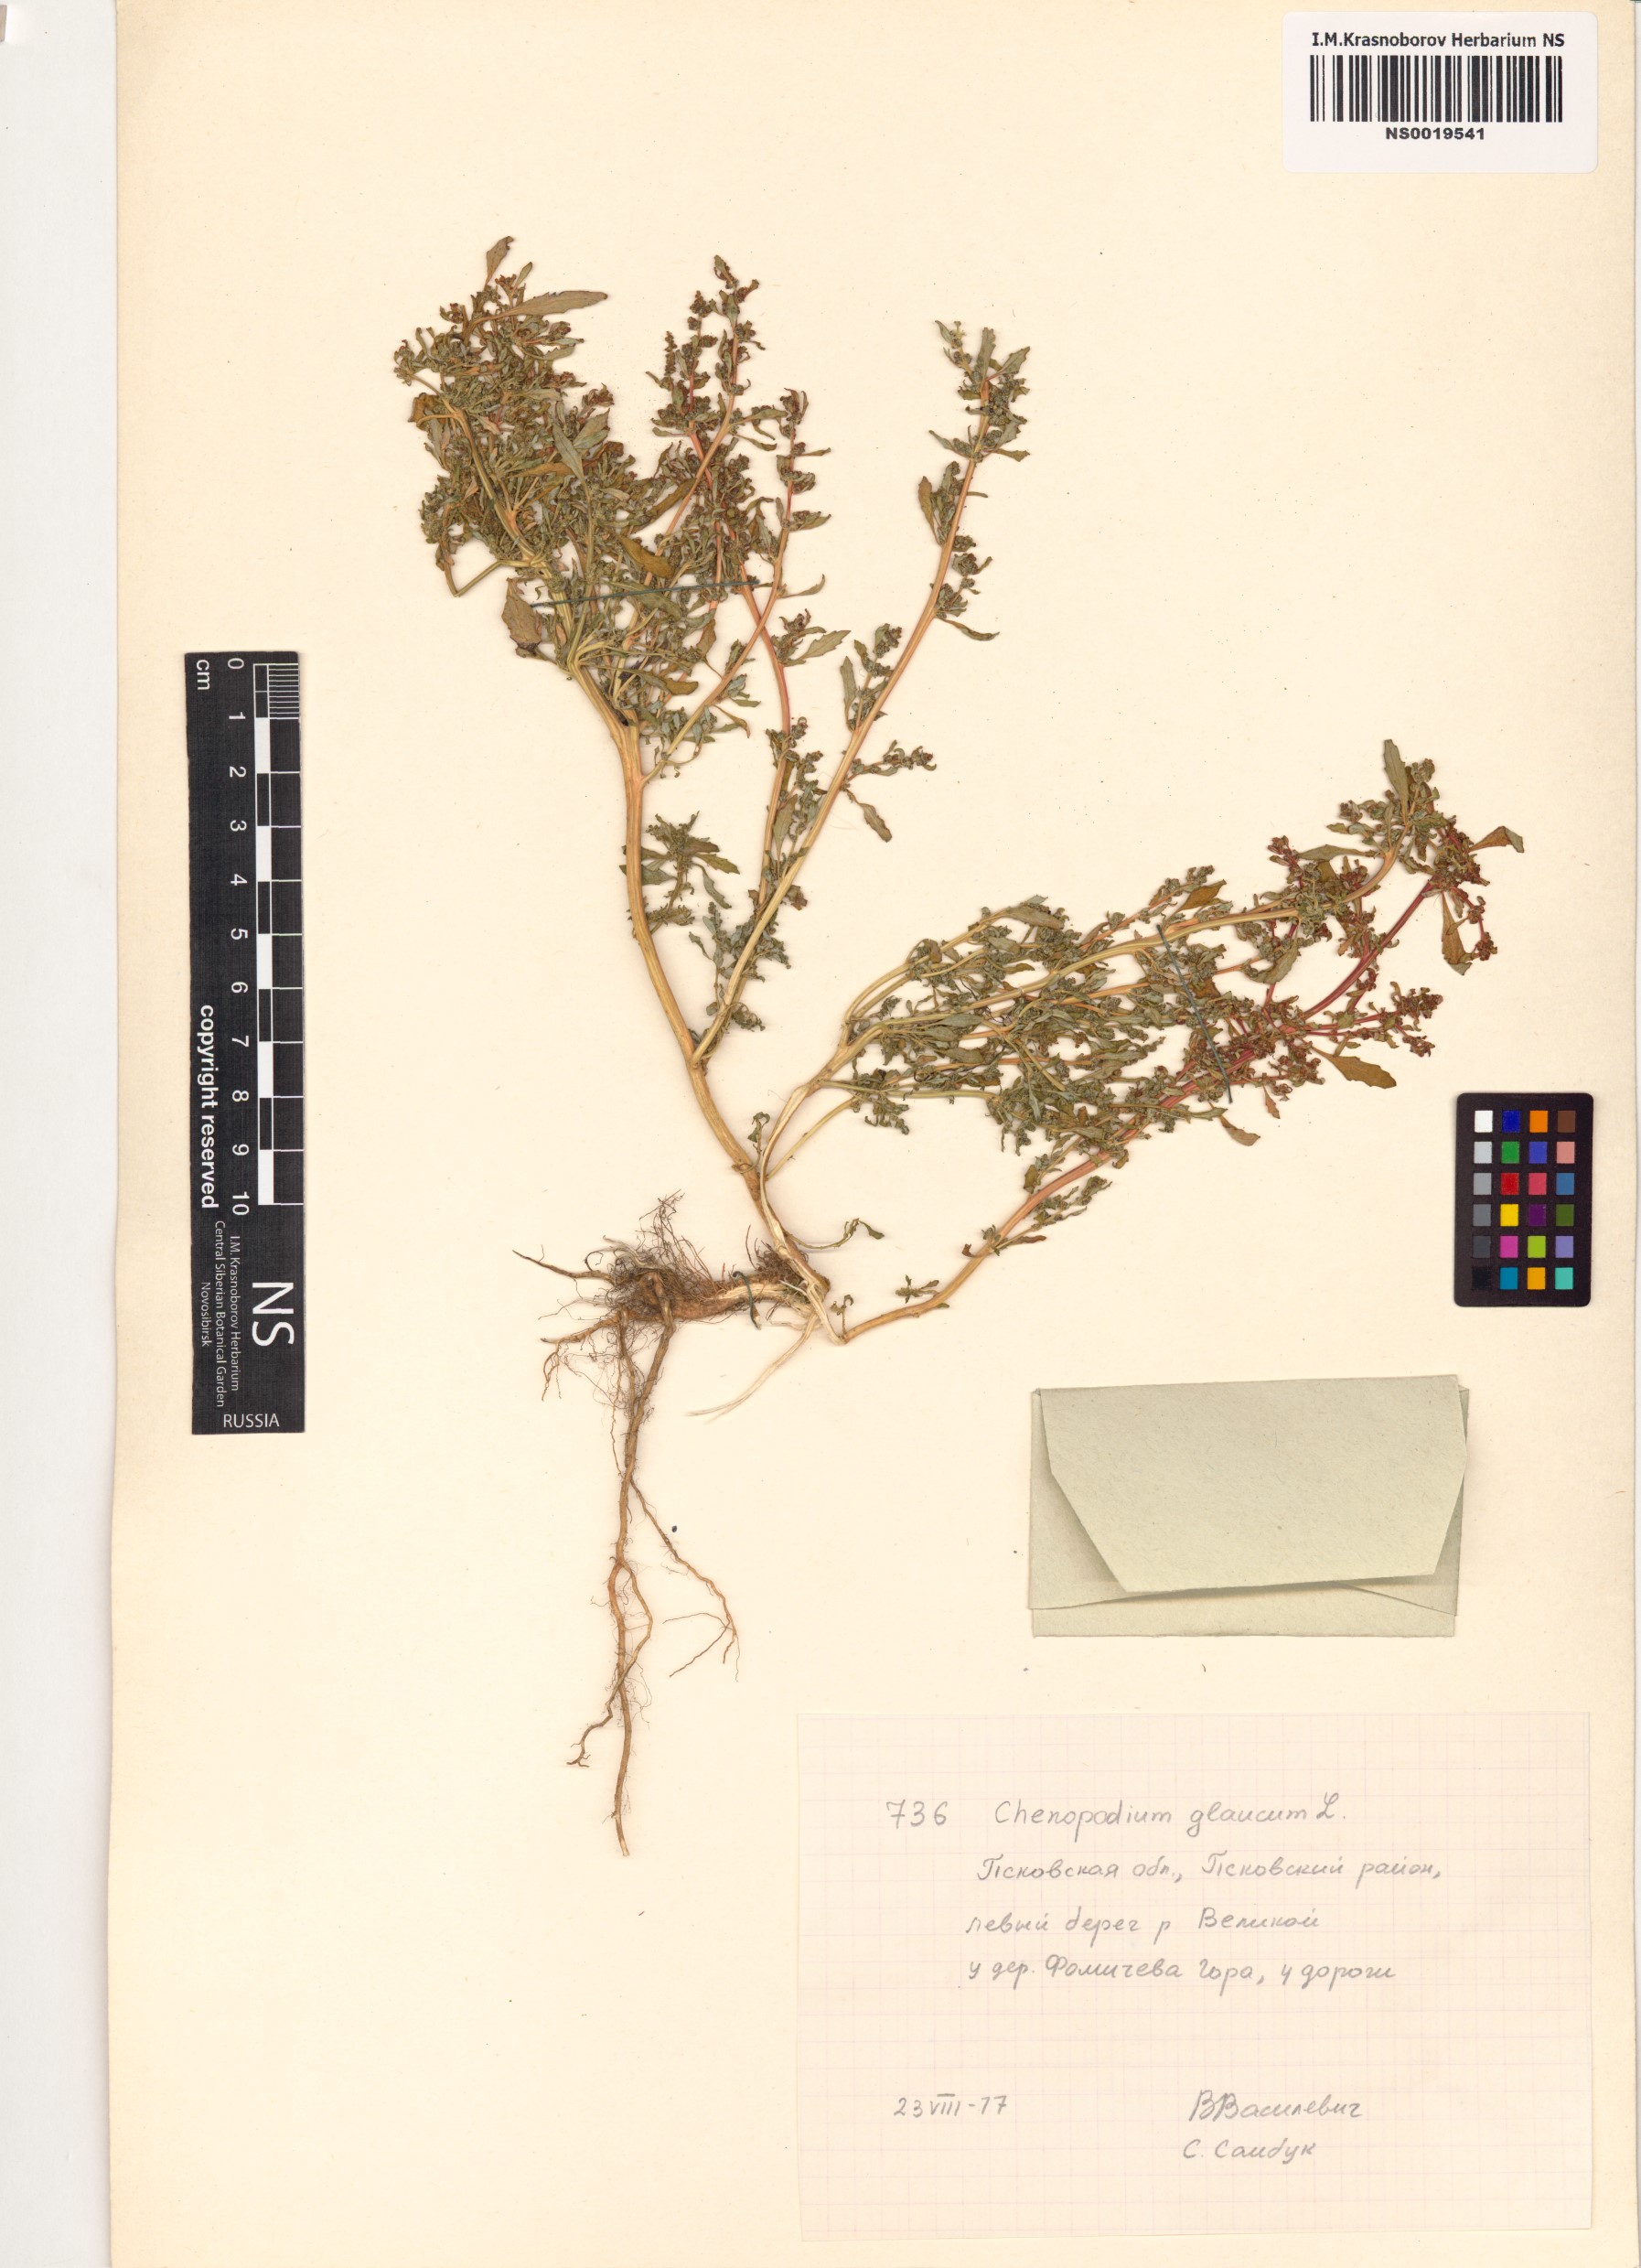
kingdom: Plantae
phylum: Tracheophyta
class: Magnoliopsida
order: Caryophyllales
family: Amaranthaceae
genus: Oxybasis
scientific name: Oxybasis glauca
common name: Glaucous goosefoot
